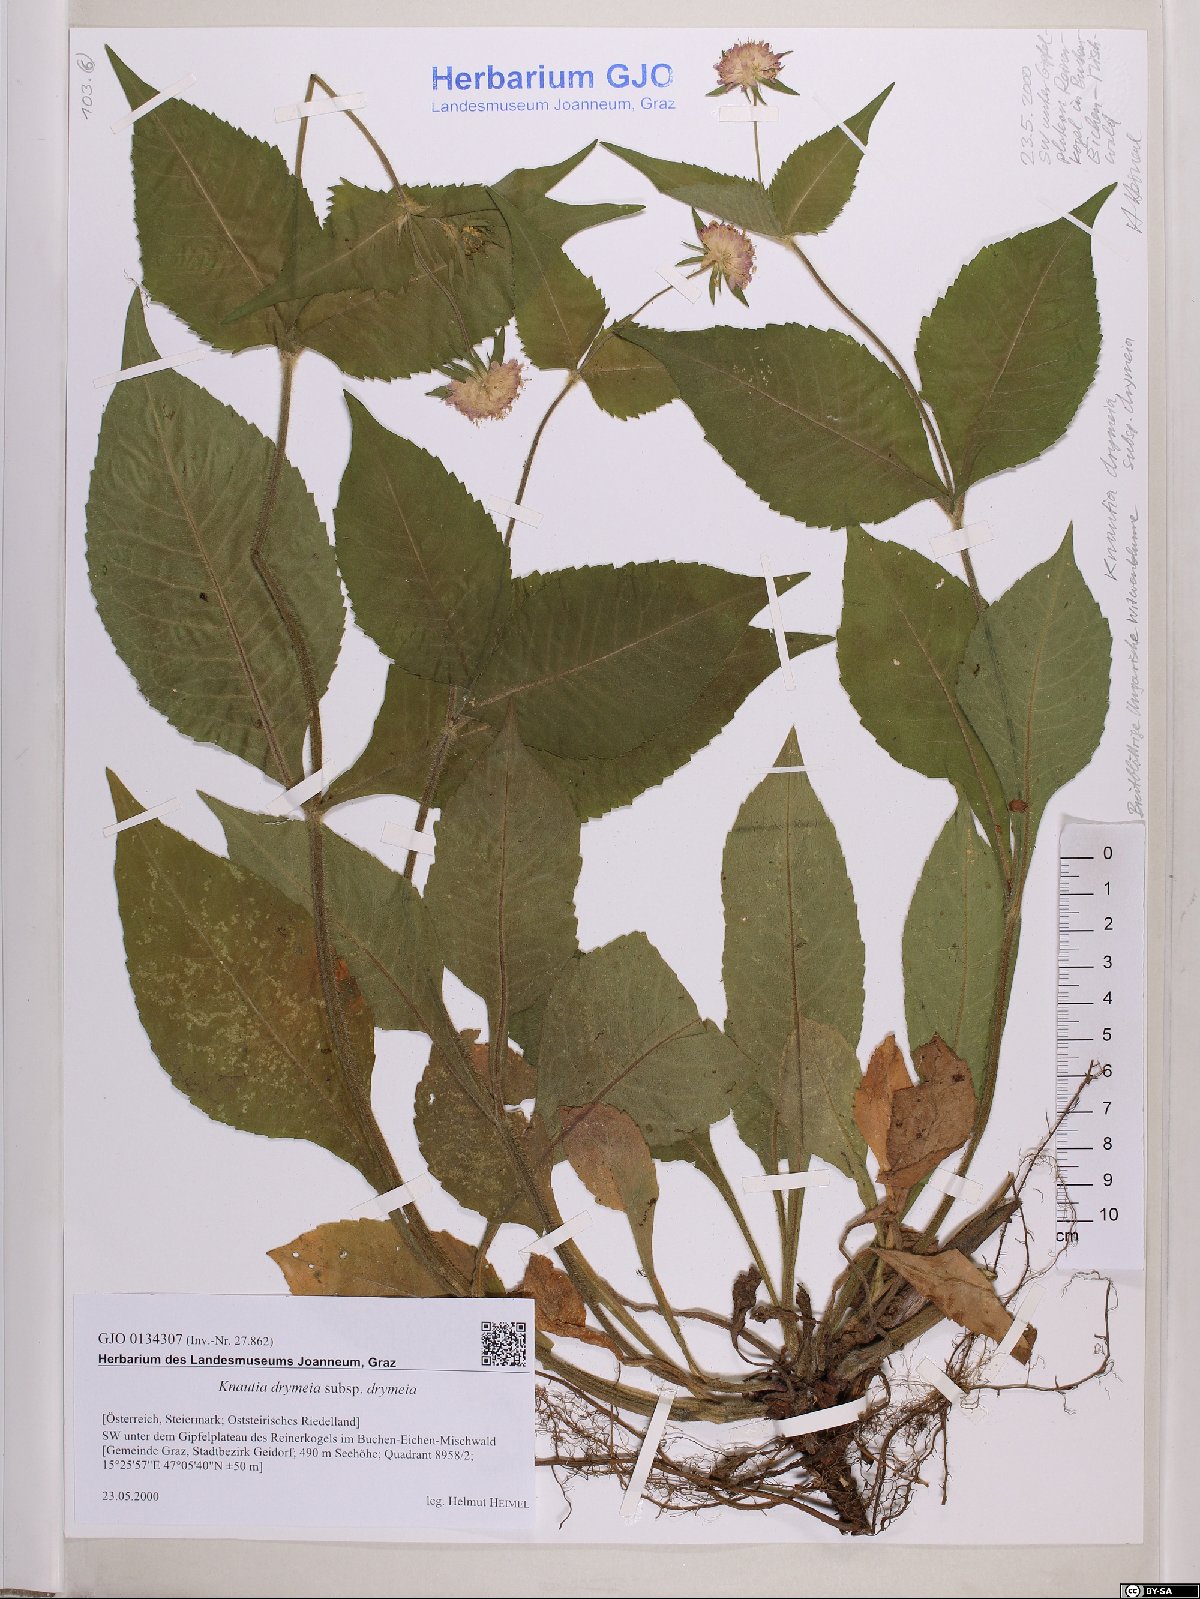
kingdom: Plantae
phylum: Tracheophyta
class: Magnoliopsida
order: Dipsacales
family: Caprifoliaceae
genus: Knautia
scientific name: Knautia drymeia
